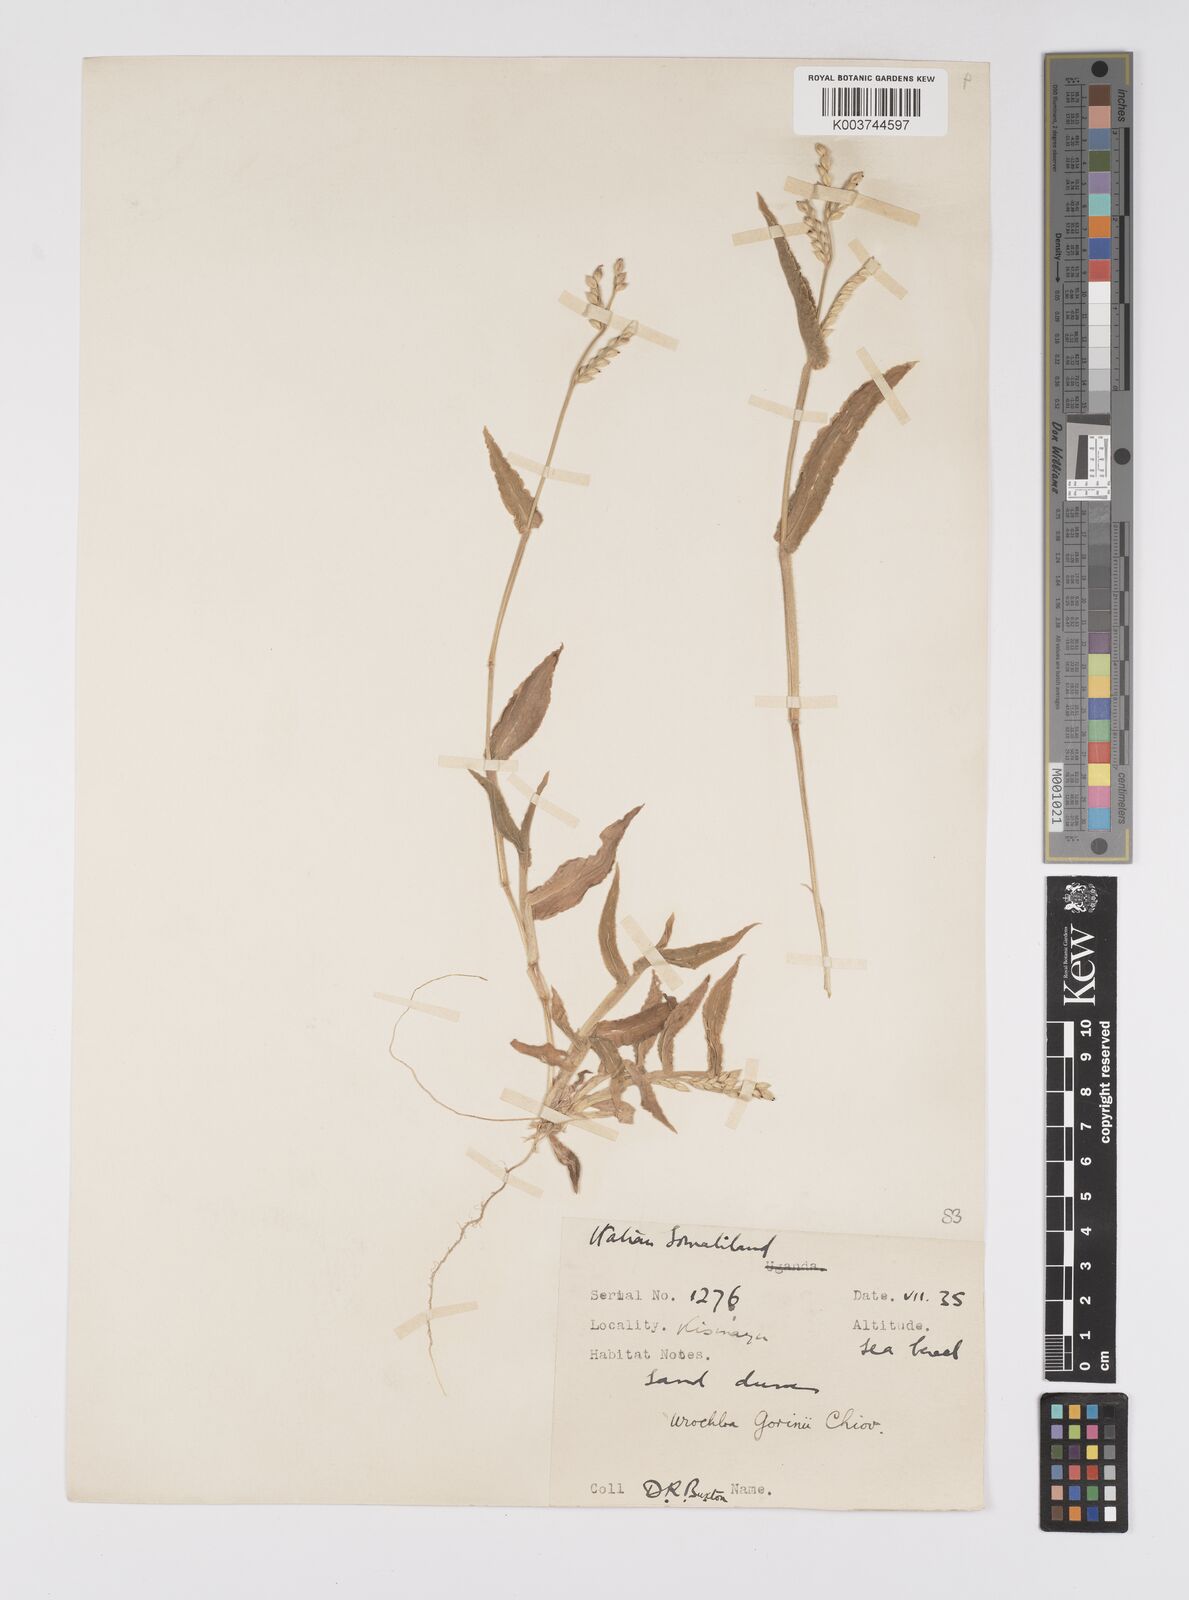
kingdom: Plantae
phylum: Tracheophyta
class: Liliopsida
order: Poales
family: Poaceae
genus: Urochloa
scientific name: Urochloa rudis
